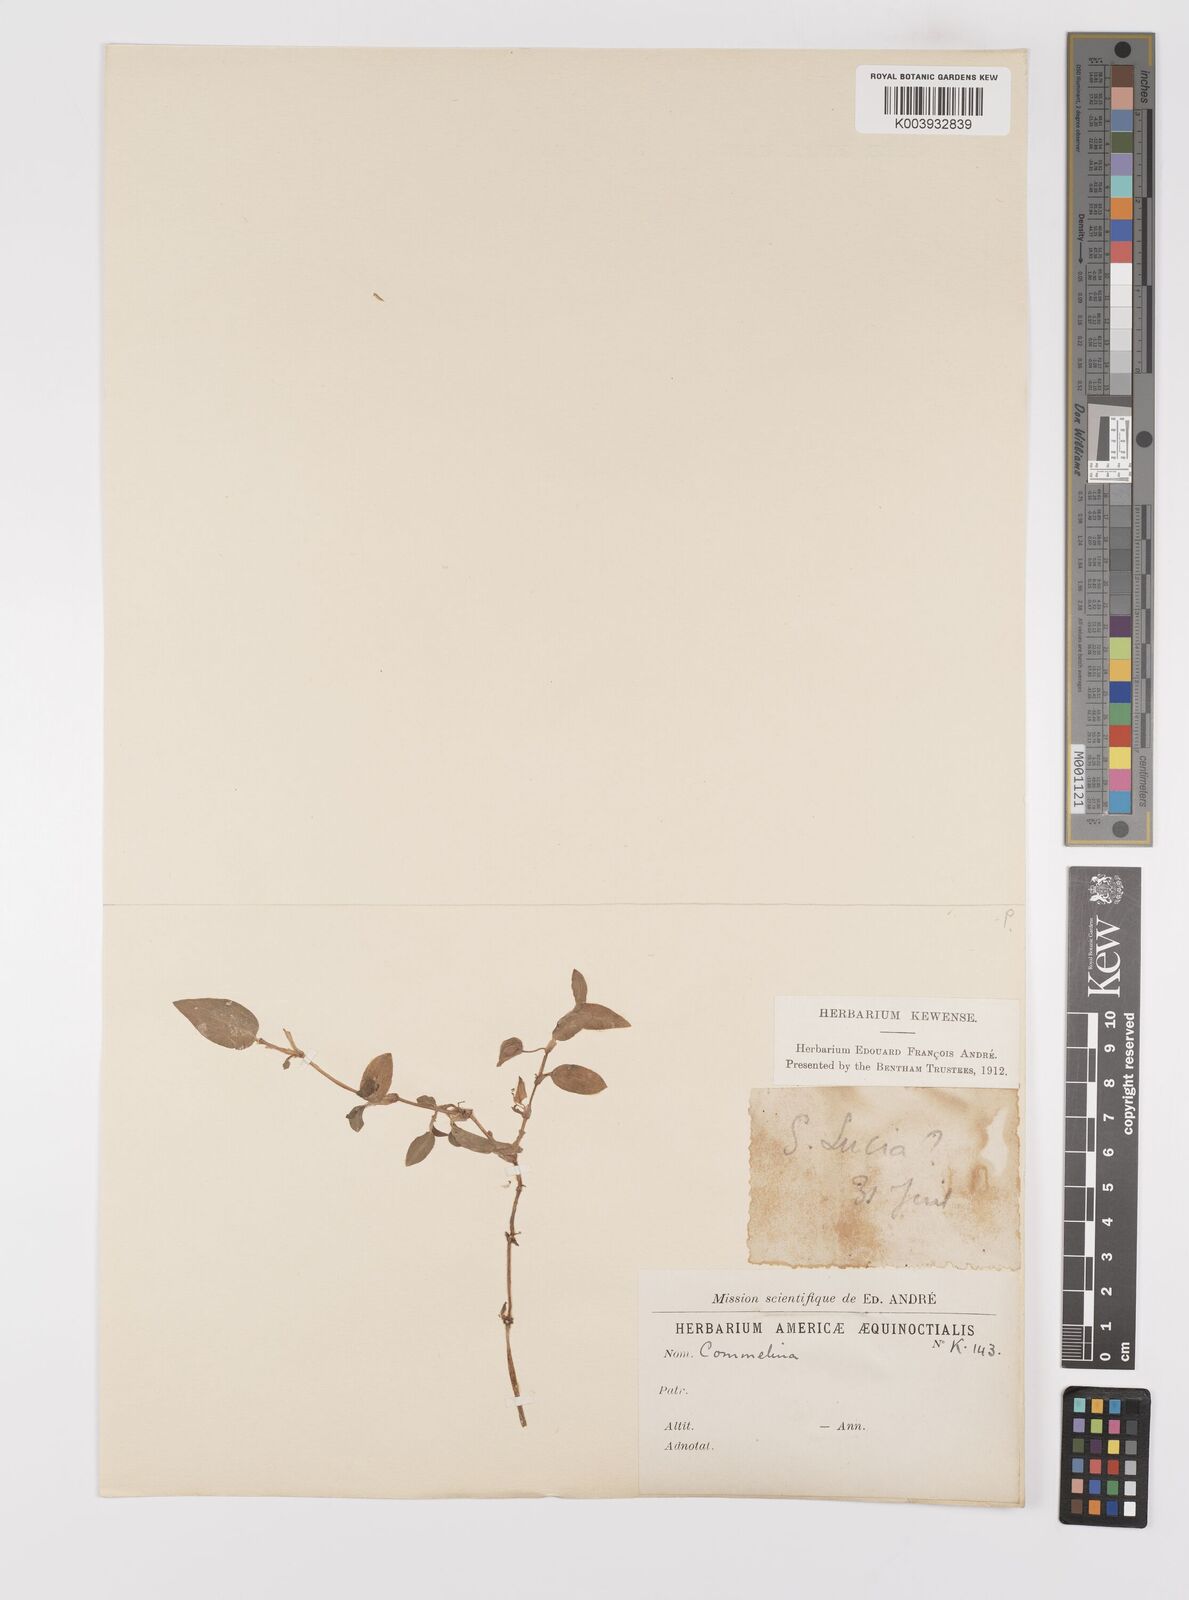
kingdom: Plantae
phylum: Tracheophyta
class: Liliopsida
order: Commelinales
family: Commelinaceae
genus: Commelina
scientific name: Commelina
